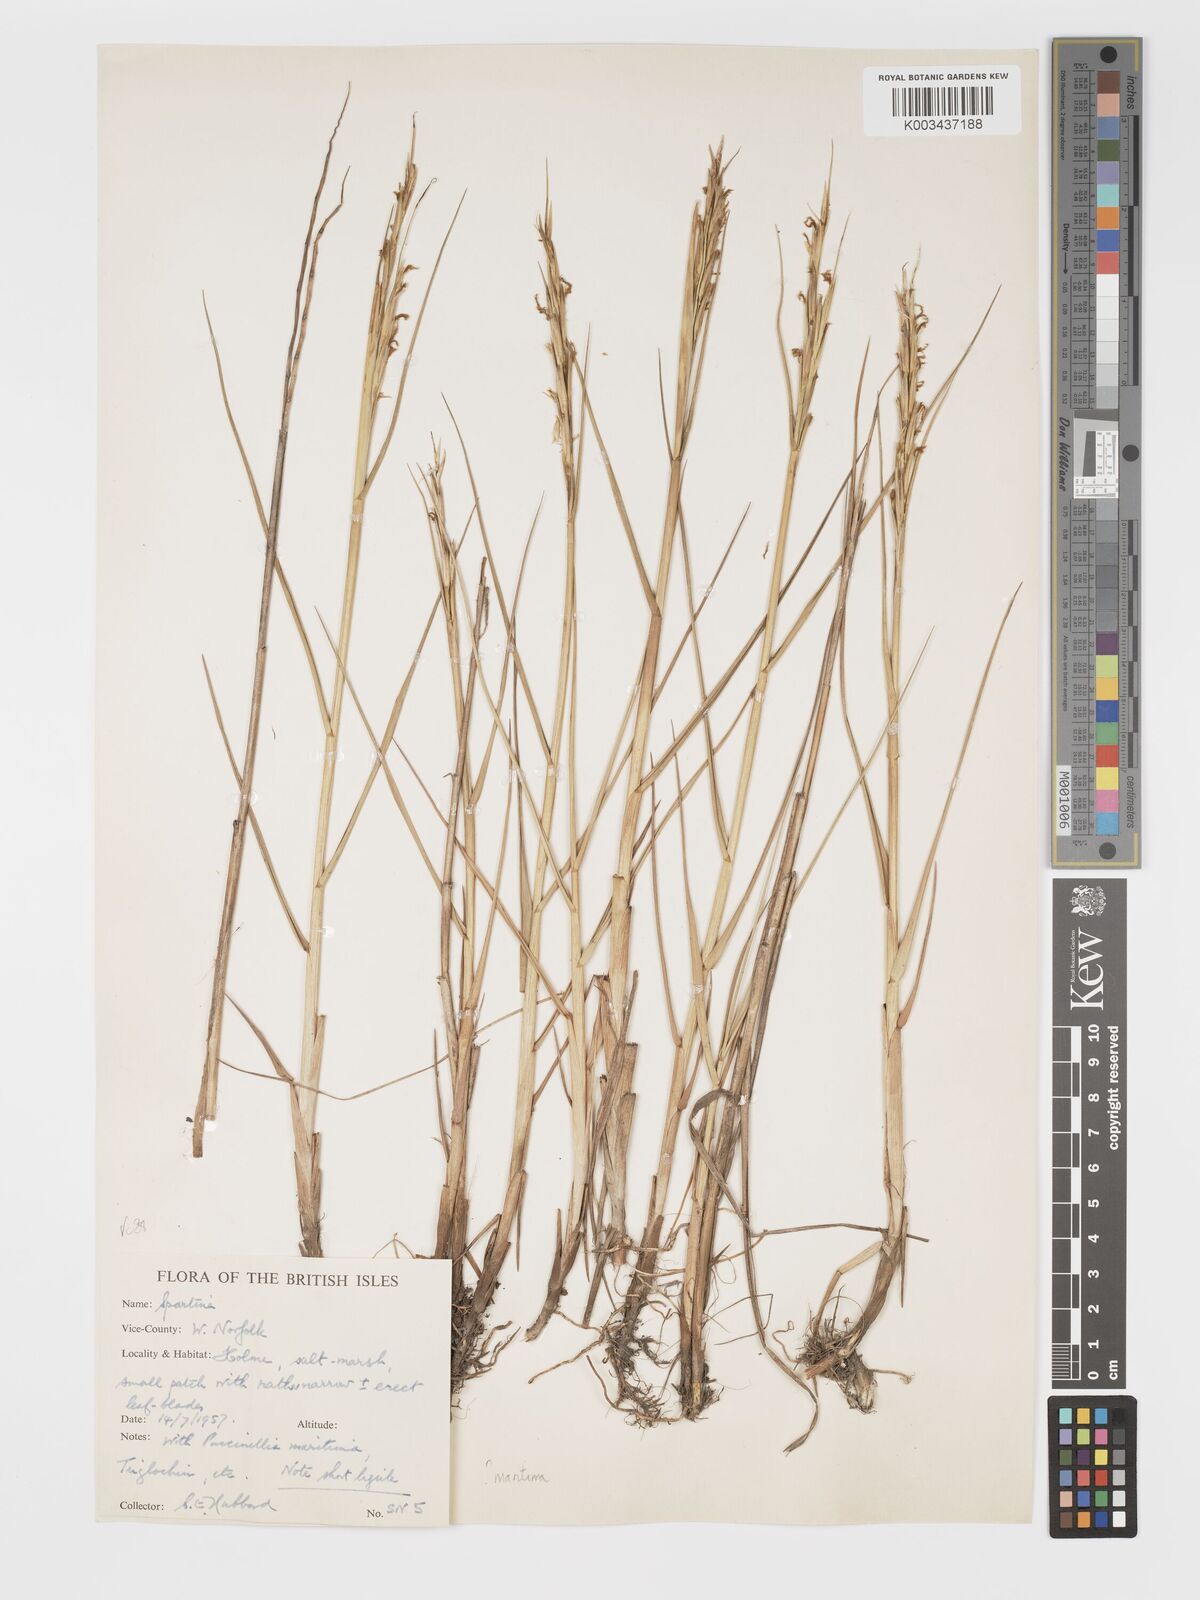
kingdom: Plantae
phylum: Tracheophyta
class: Liliopsida
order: Poales
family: Poaceae
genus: Sporobolus
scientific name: Sporobolus maritimus
